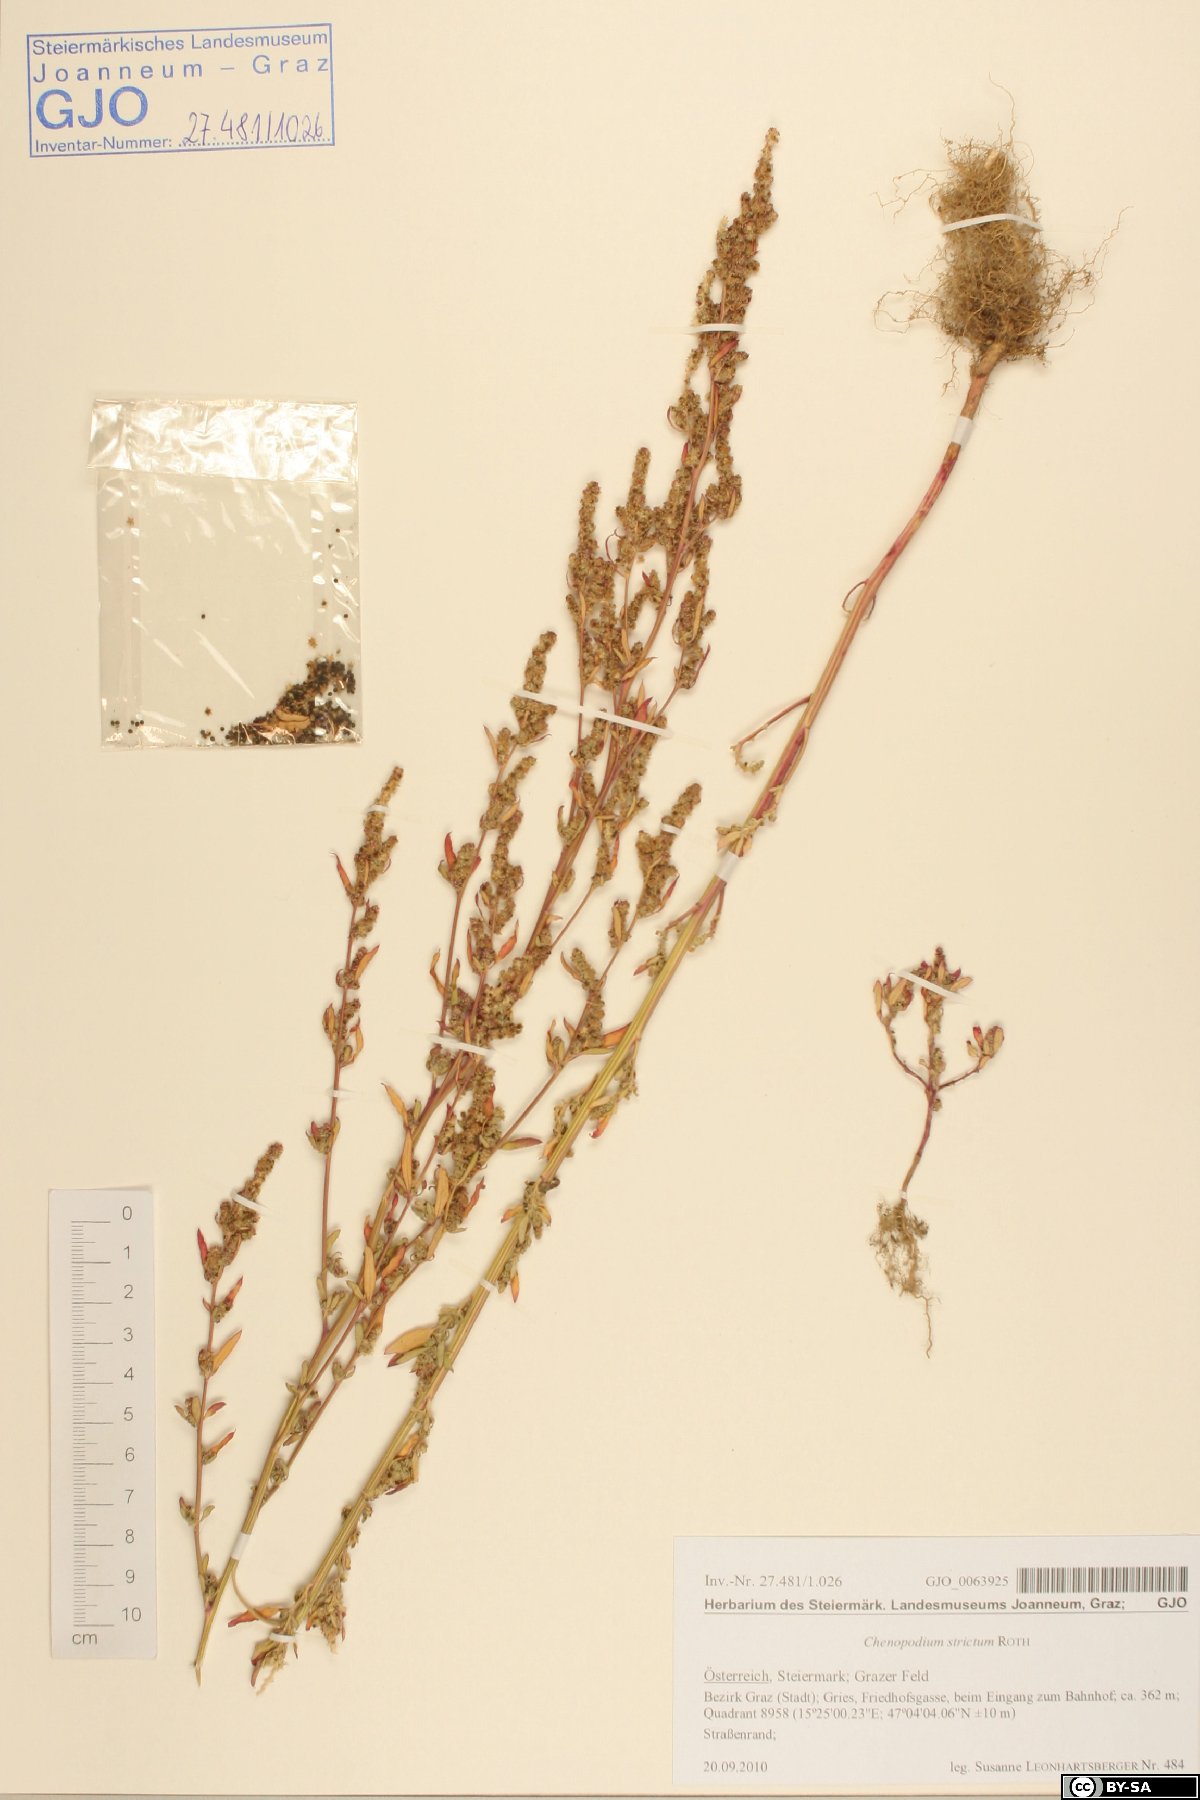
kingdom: Plantae
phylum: Tracheophyta
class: Magnoliopsida
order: Caryophyllales
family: Amaranthaceae
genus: Chenopodium
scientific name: Chenopodium album
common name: Fat-hen
